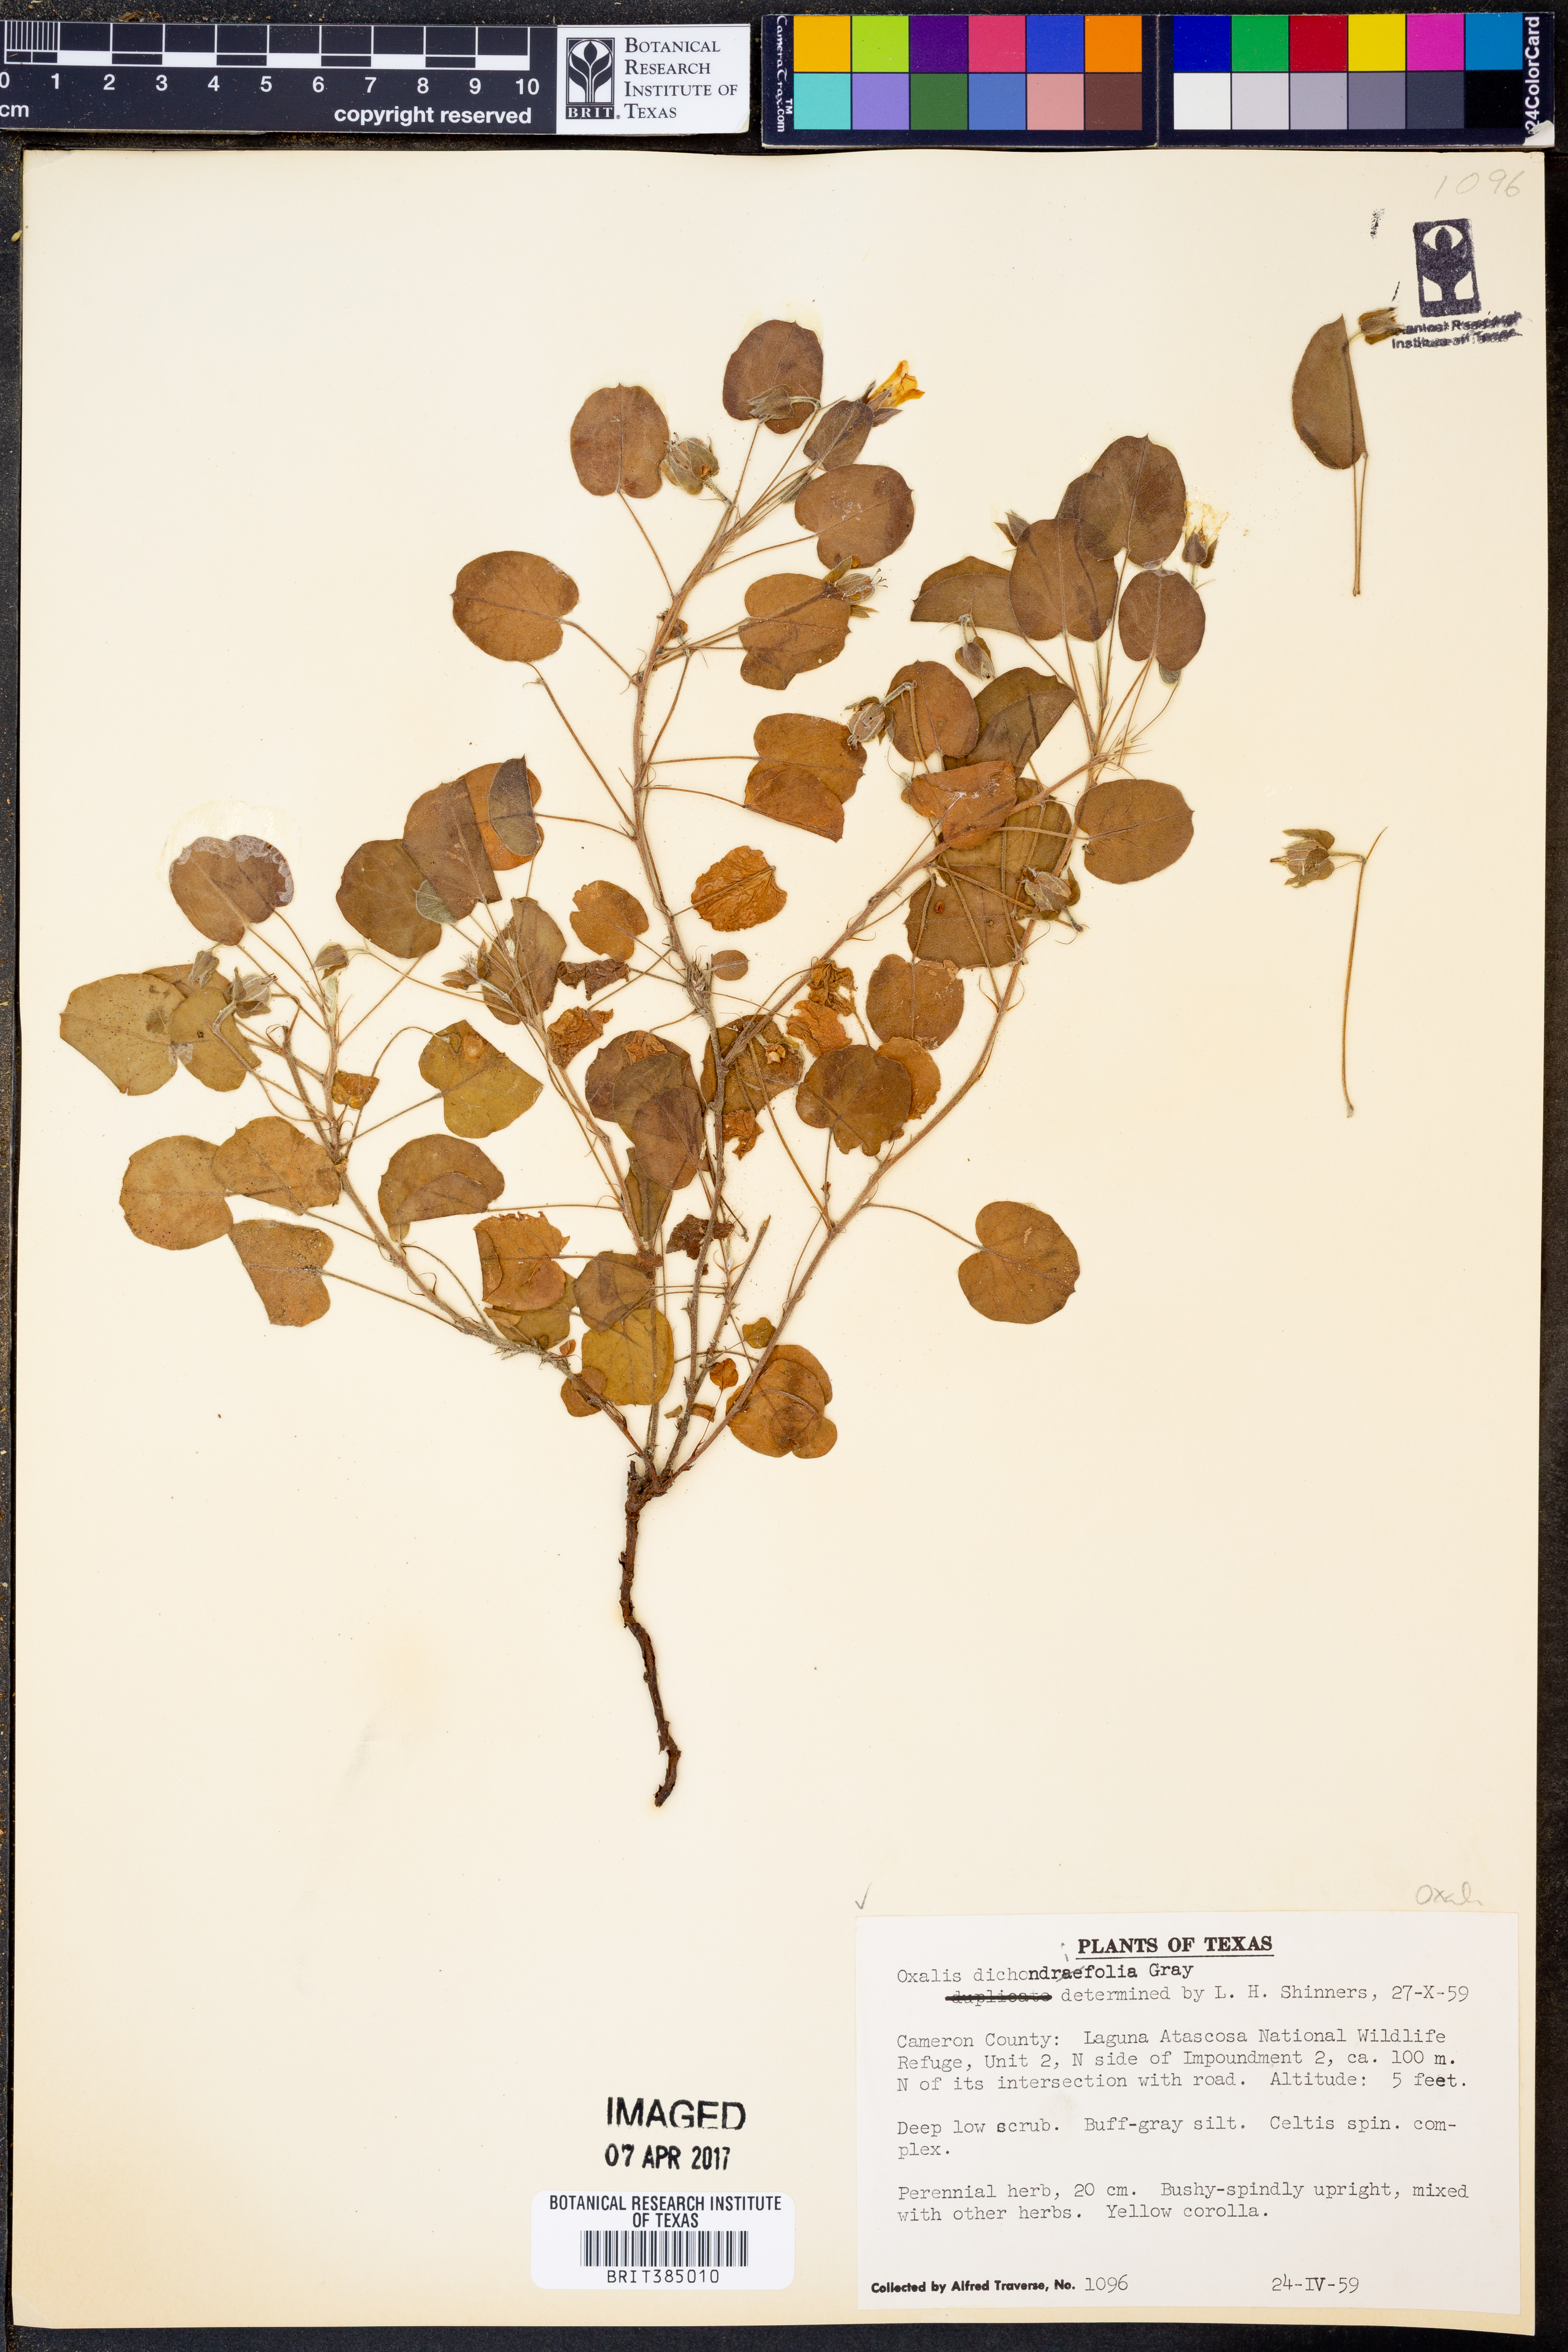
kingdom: Plantae
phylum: Tracheophyta
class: Magnoliopsida
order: Oxalidales
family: Oxalidaceae
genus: Oxalis
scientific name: Oxalis dichondrifolia
